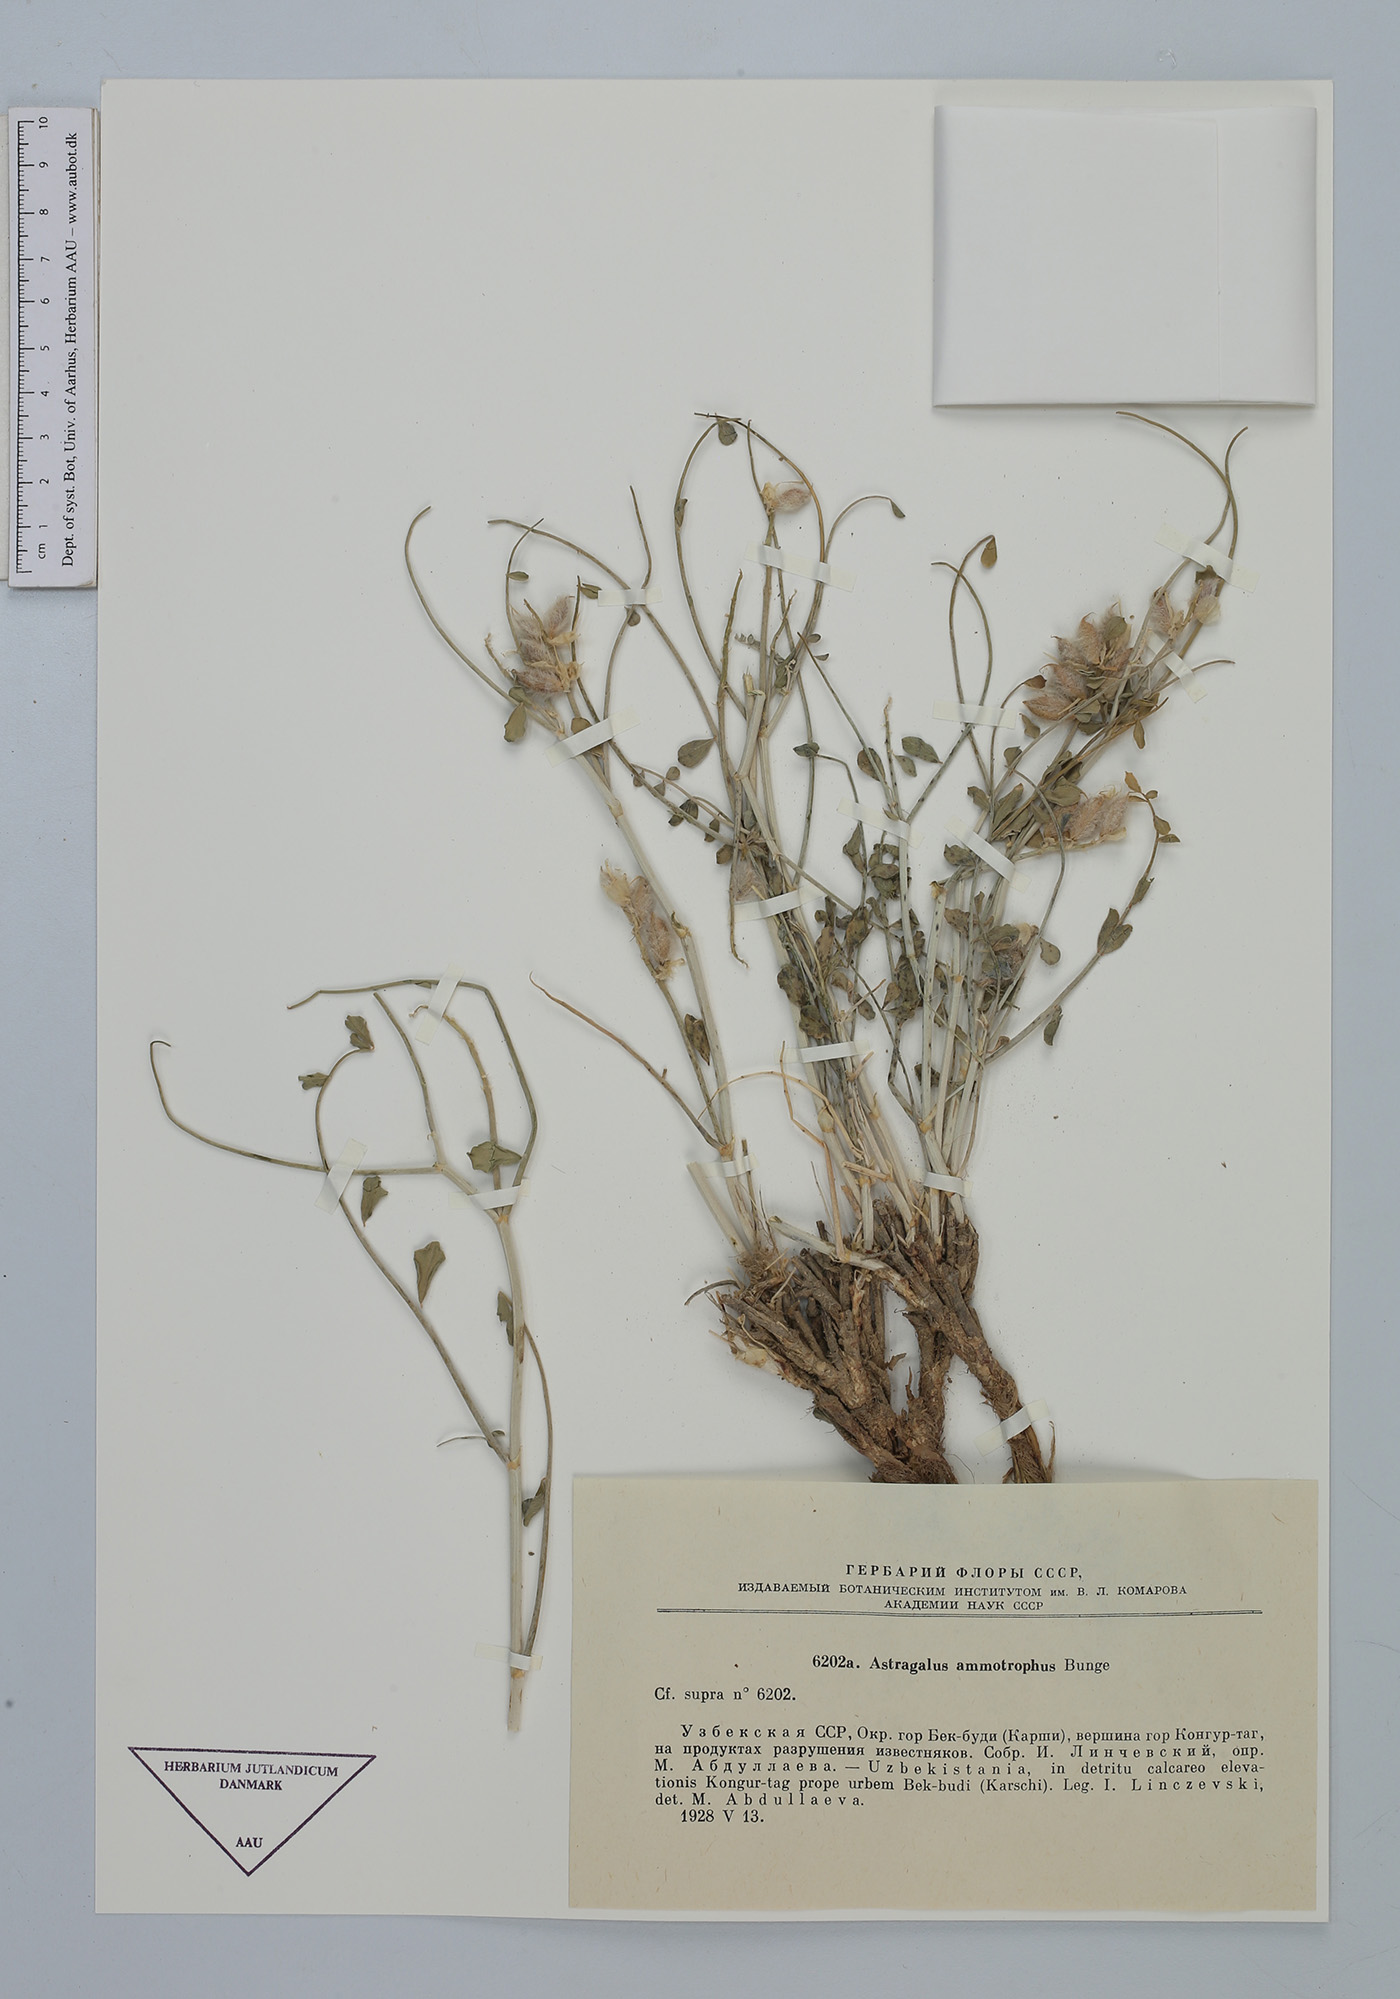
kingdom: Plantae
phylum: Tracheophyta
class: Magnoliopsida
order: Fabales
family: Fabaceae
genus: Astragalus
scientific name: Astragalus ammotrophus
